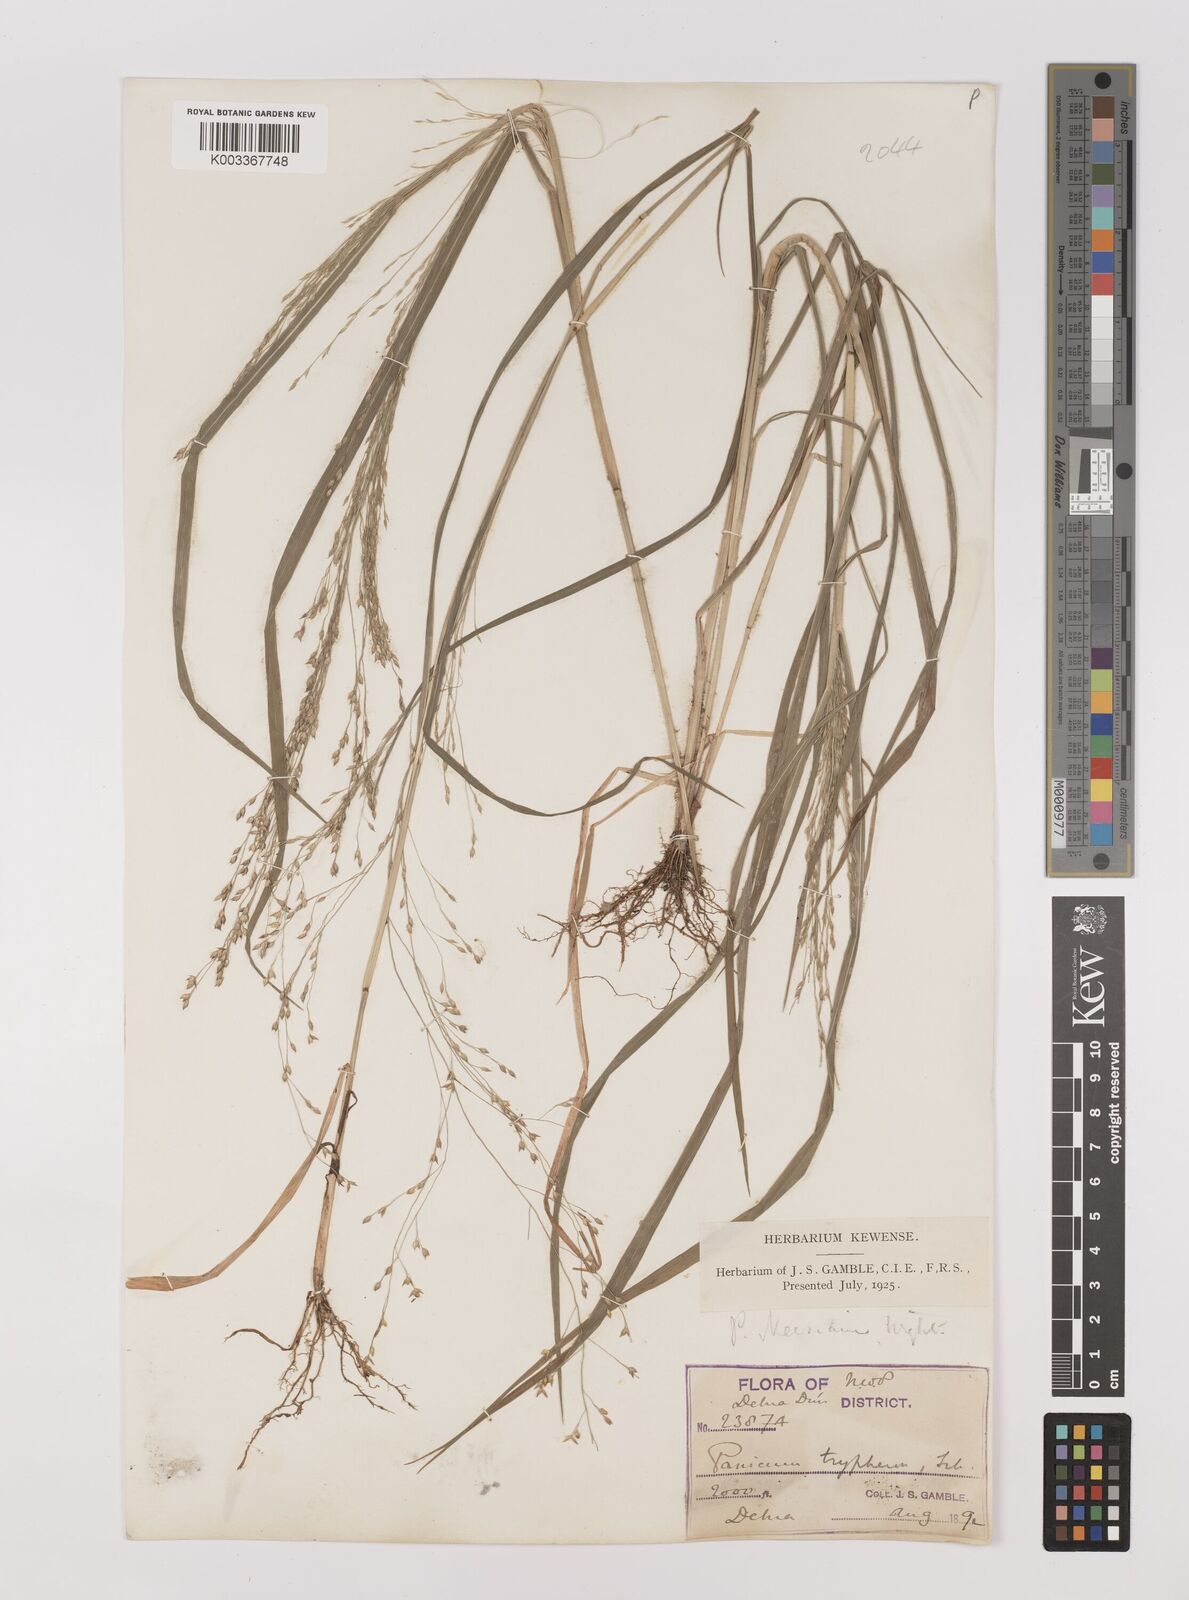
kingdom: Plantae
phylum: Tracheophyta
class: Liliopsida
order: Poales
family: Poaceae
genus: Panicum
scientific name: Panicum curviflorum
